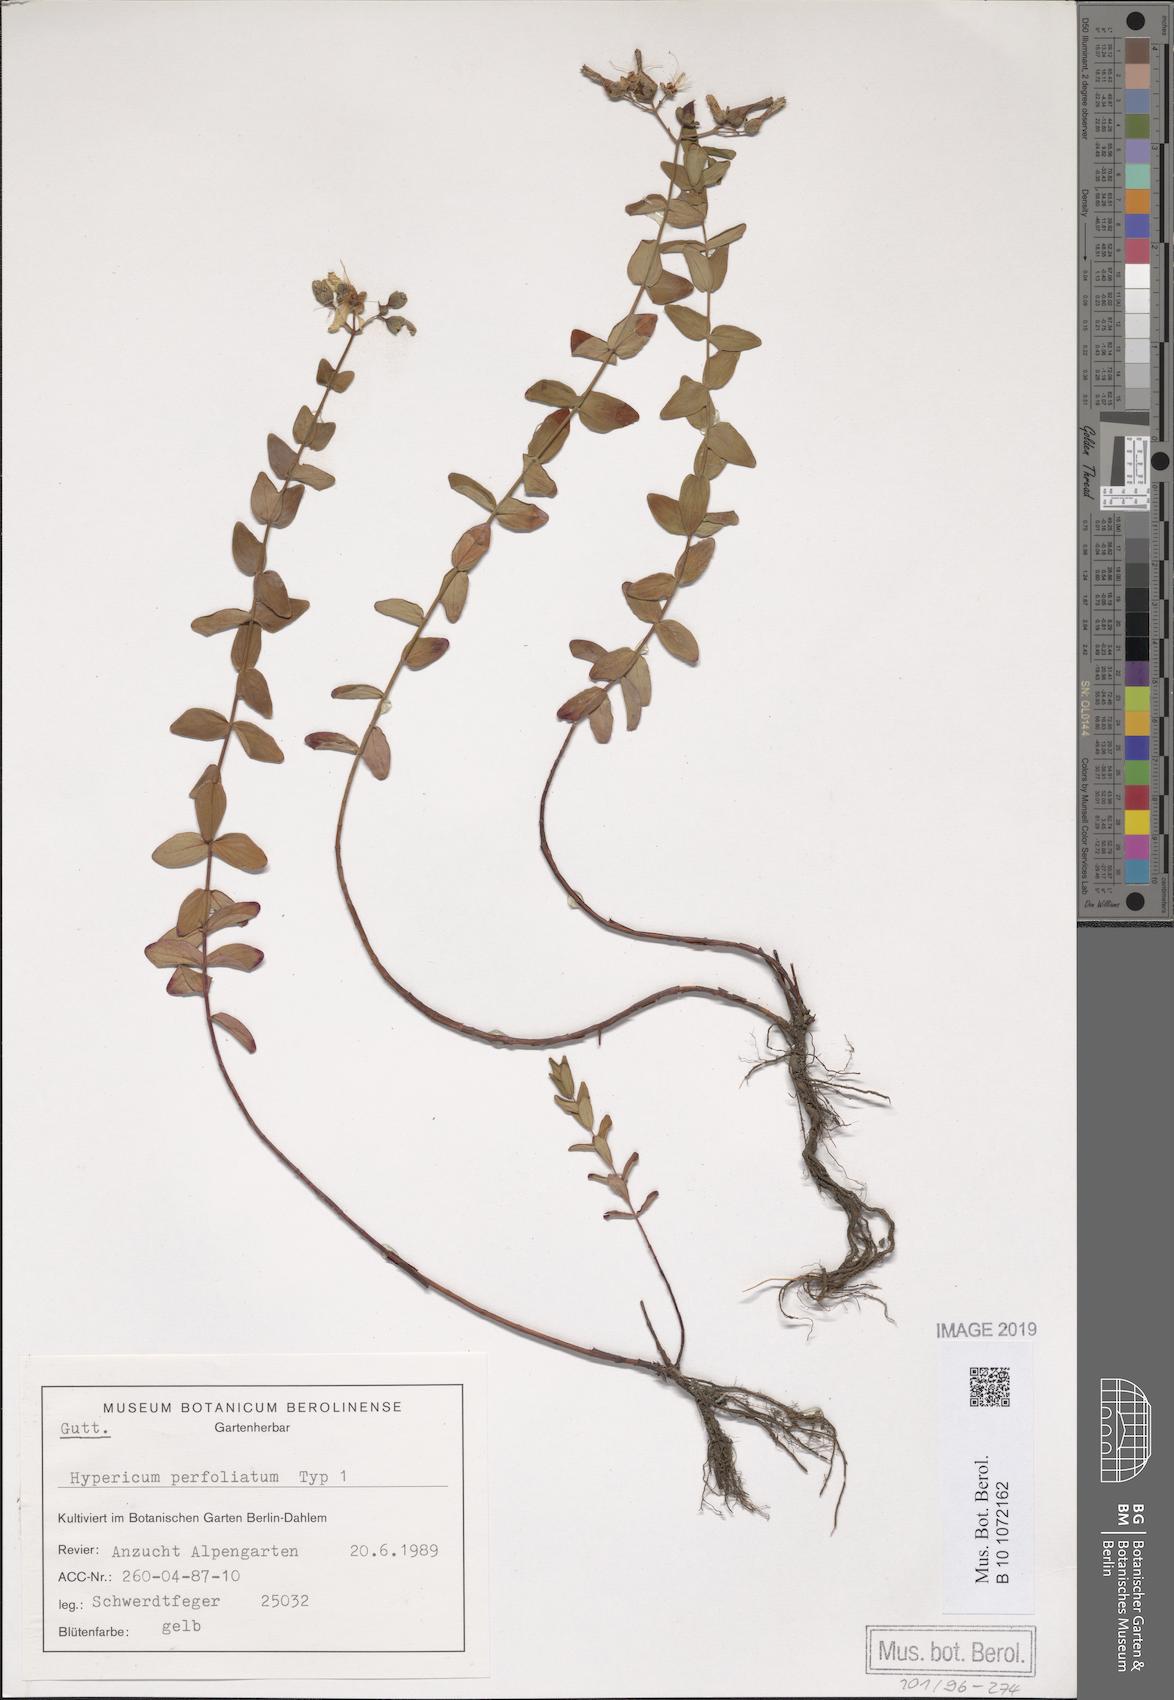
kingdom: Plantae
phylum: Tracheophyta
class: Magnoliopsida
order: Malpighiales
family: Hypericaceae
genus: Hypericum
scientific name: Hypericum vesiculosum
